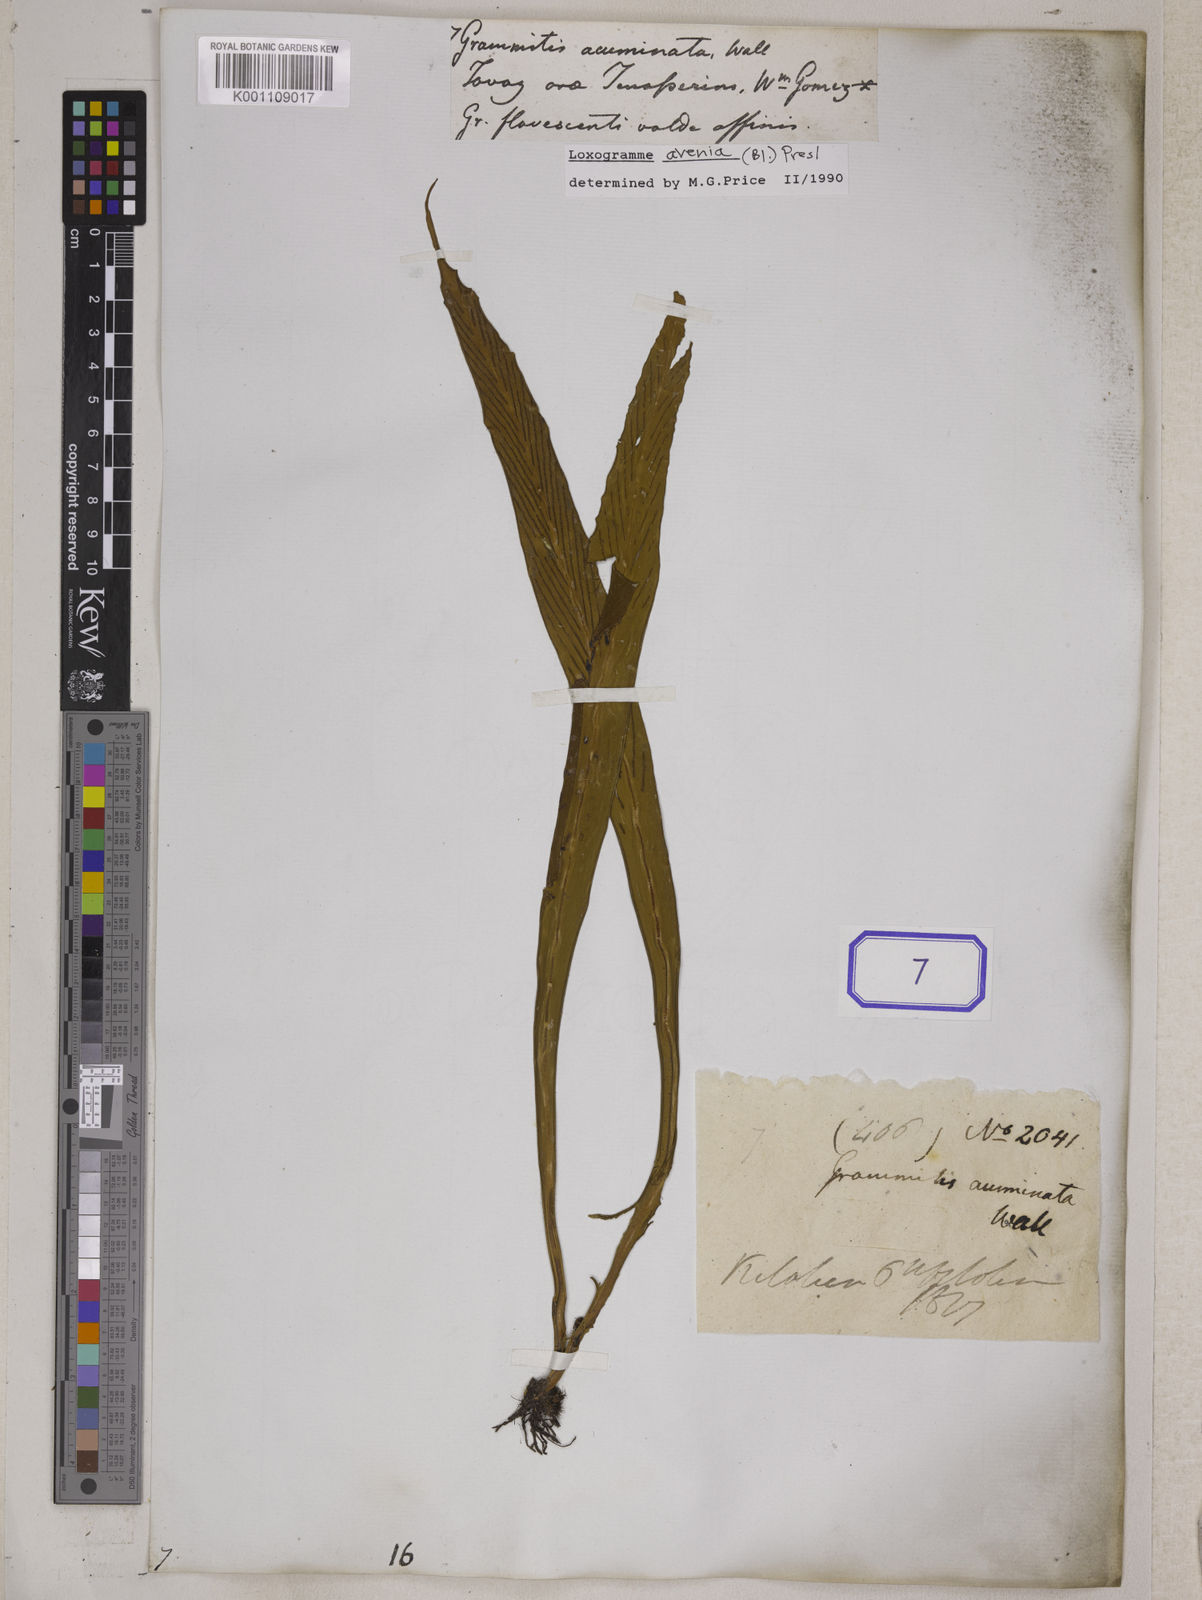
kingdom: Plantae
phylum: Tracheophyta
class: Polypodiopsida
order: Polypodiales
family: Polypodiaceae
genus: Loxogramme
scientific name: Loxogramme involuta
